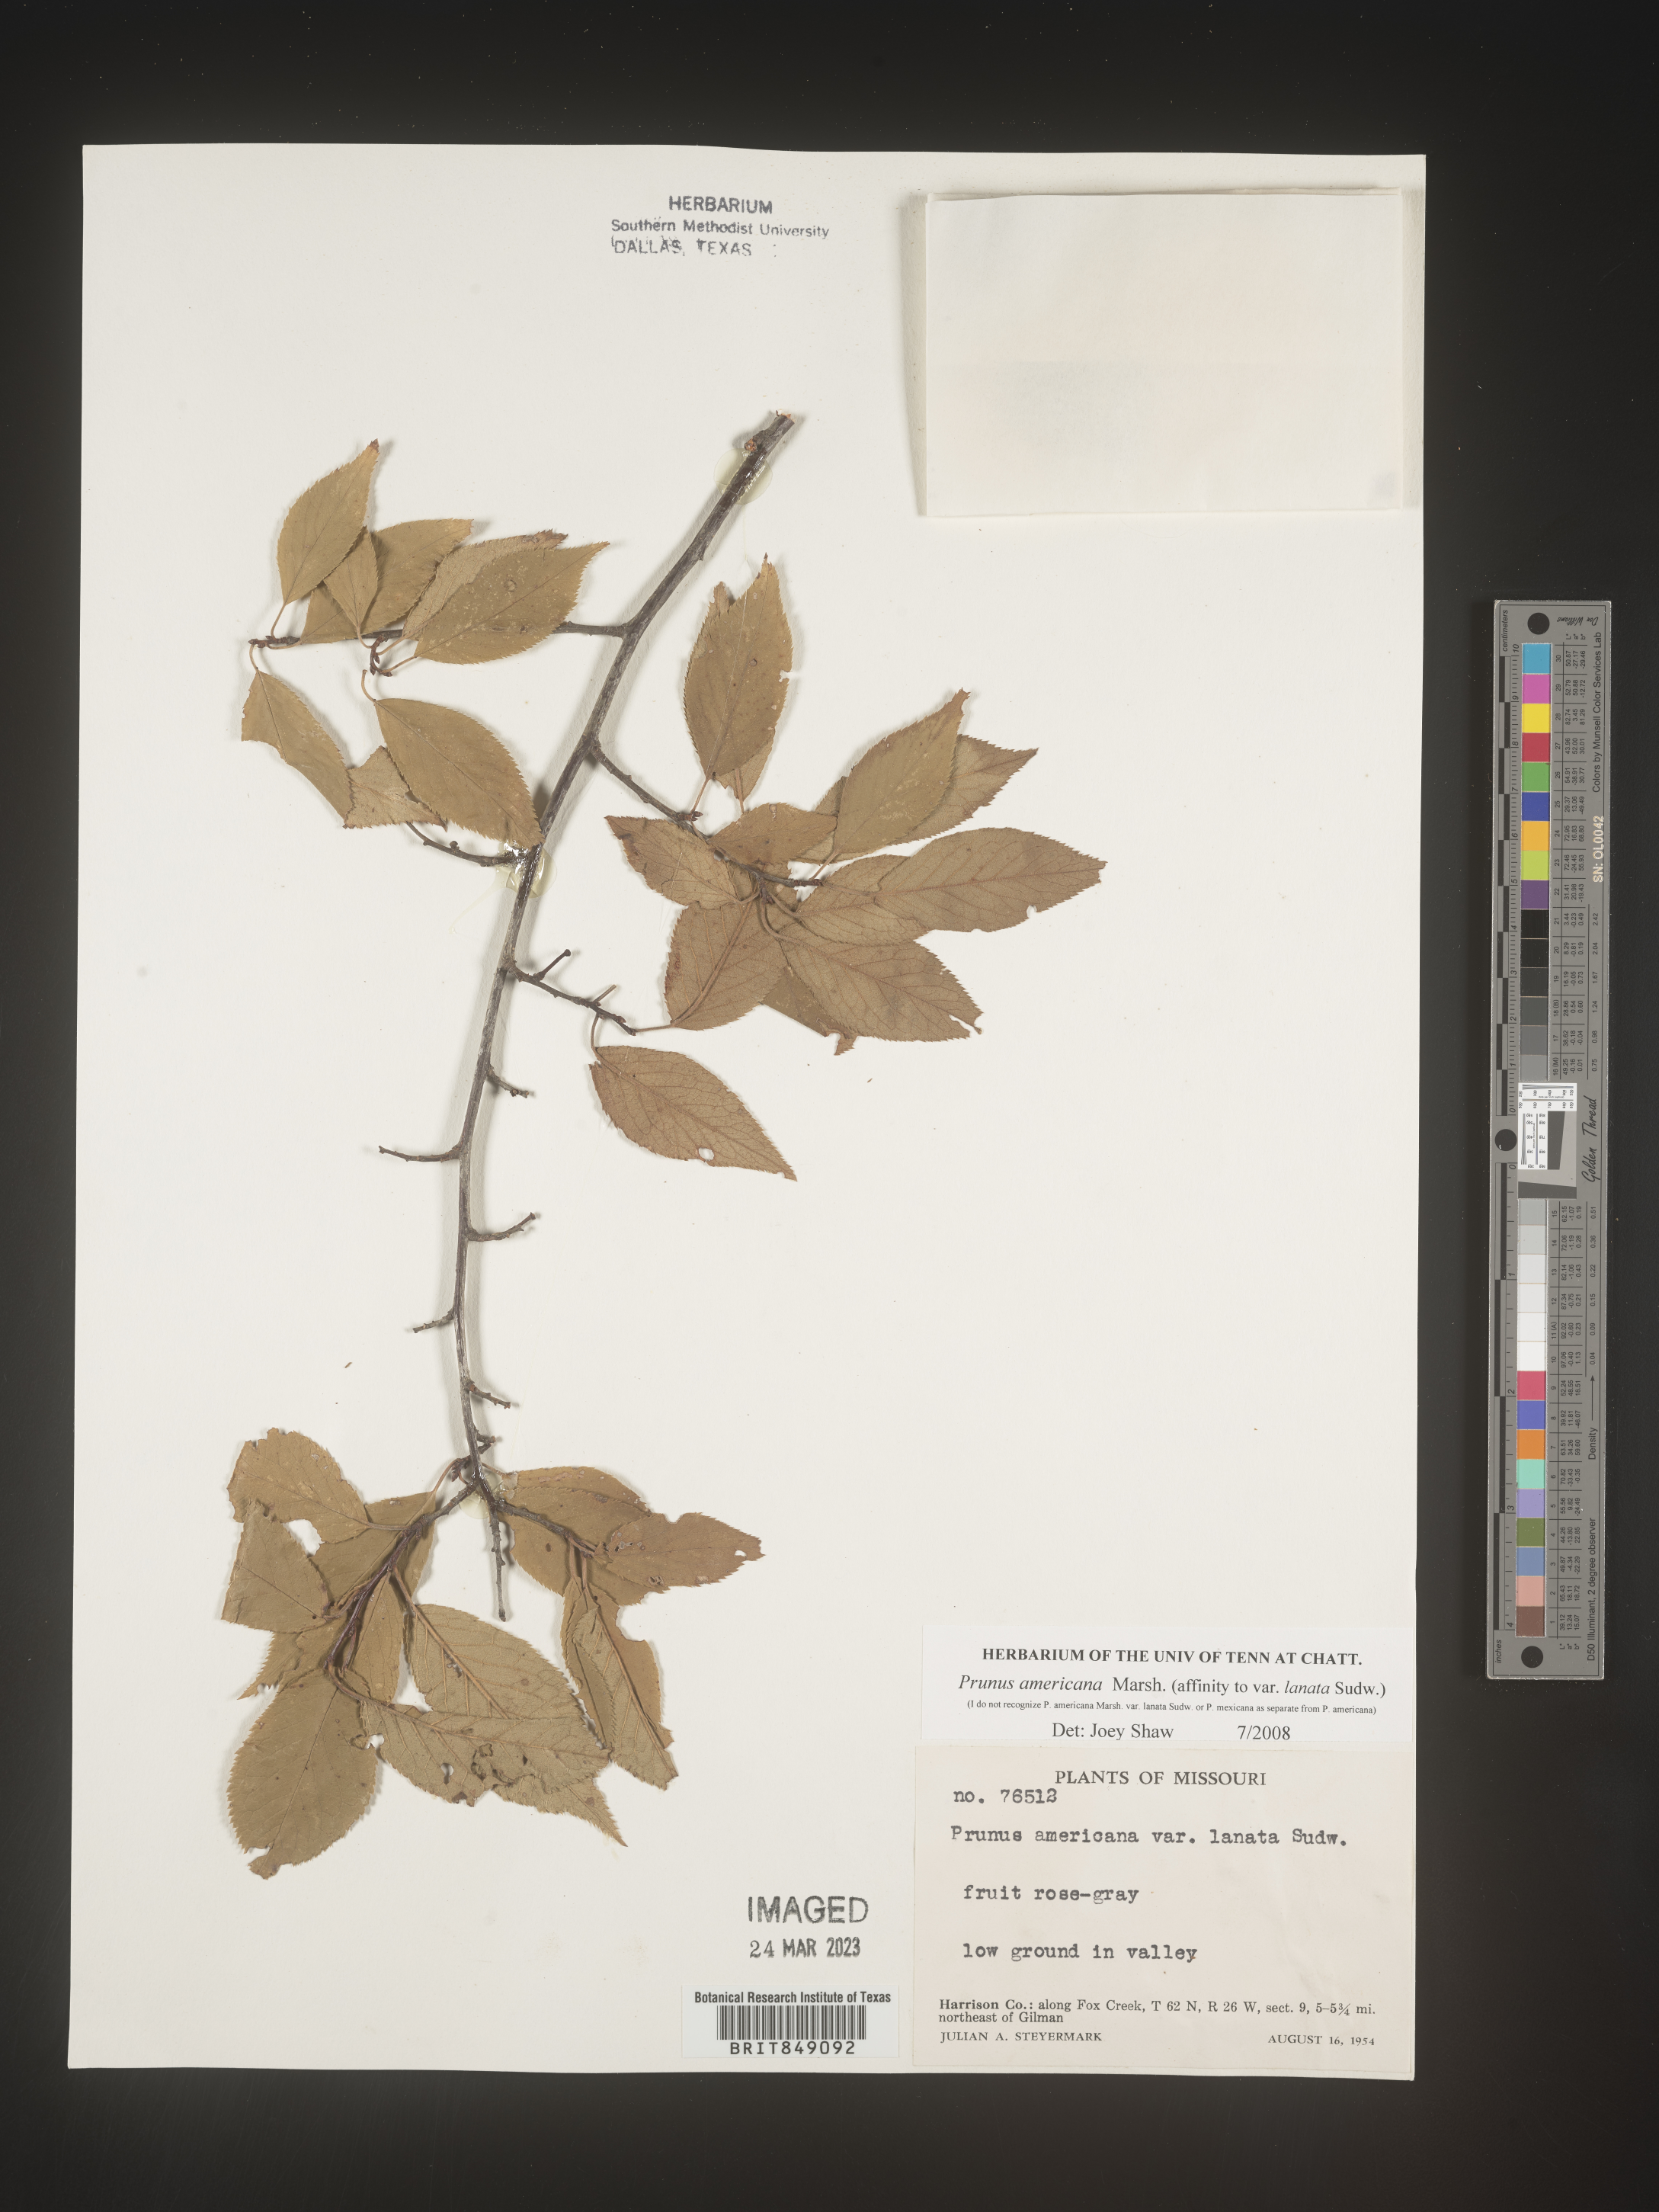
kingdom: Plantae
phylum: Tracheophyta
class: Magnoliopsida
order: Rosales
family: Rosaceae
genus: Prunus
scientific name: Prunus americana
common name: American plum
